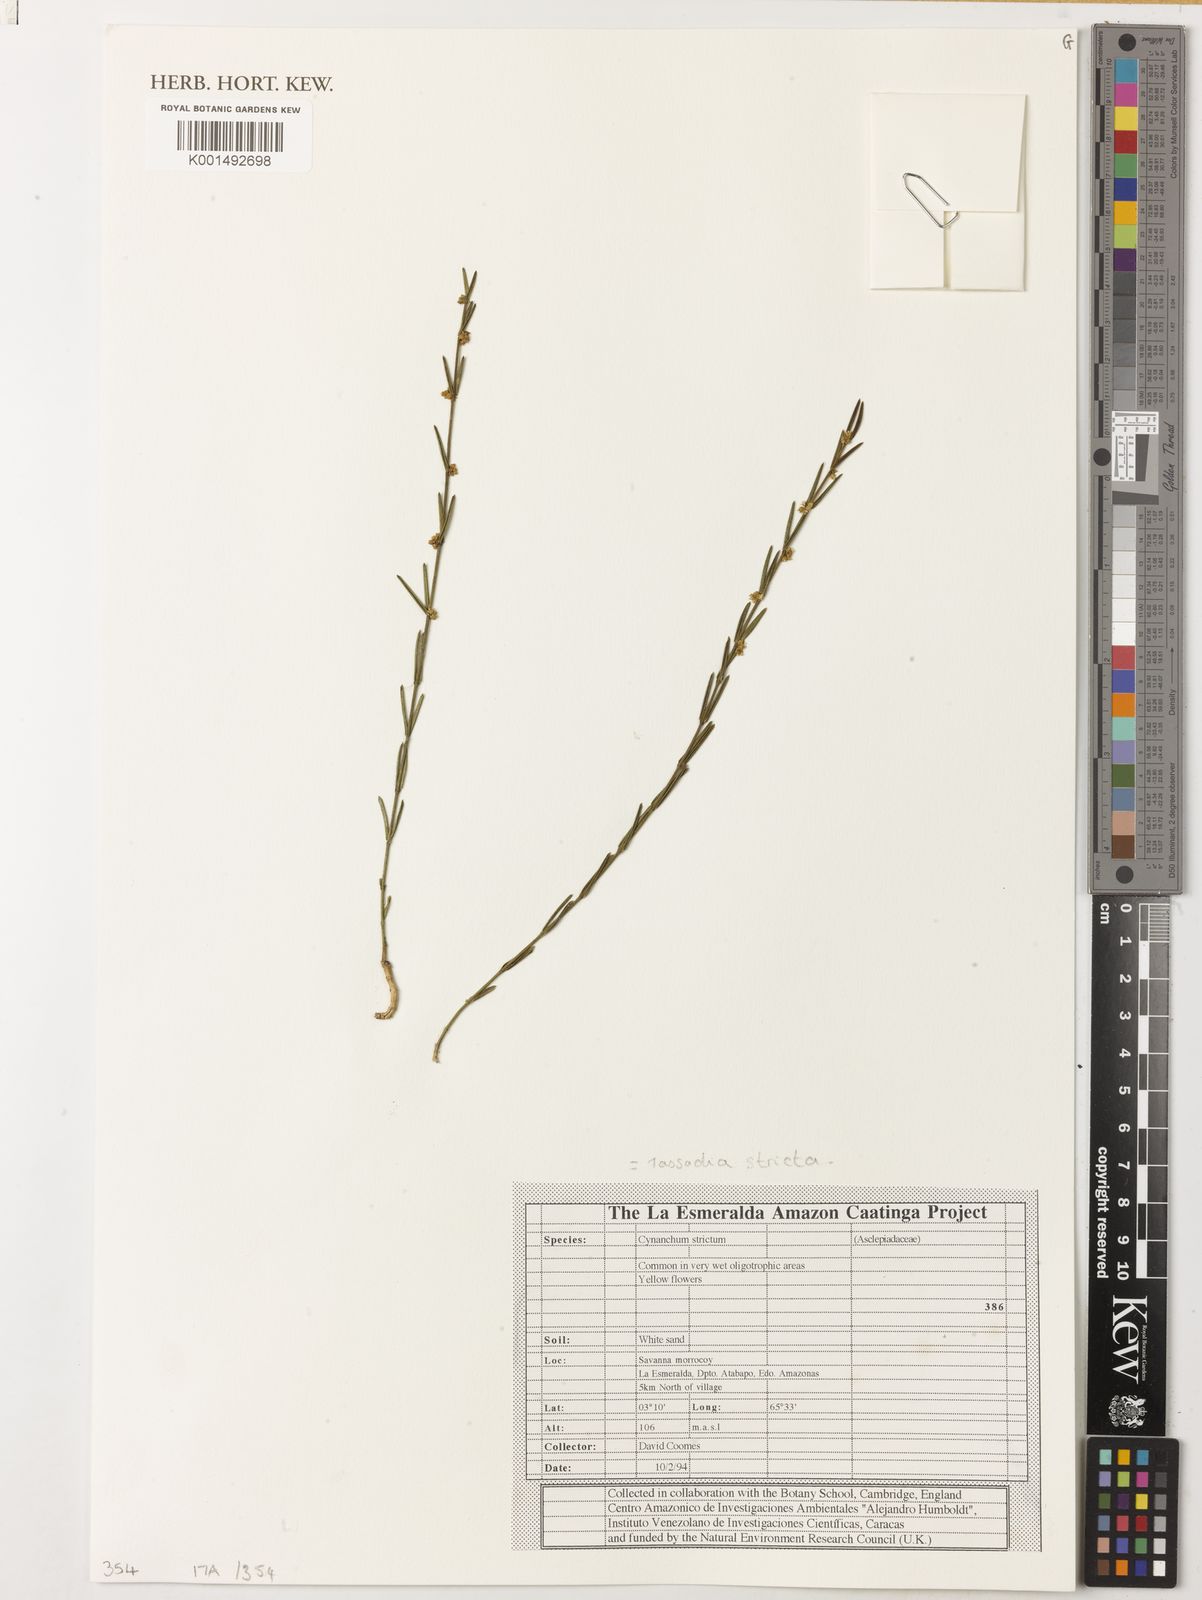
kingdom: Plantae
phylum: Tracheophyta
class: Magnoliopsida
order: Gentianales
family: Apocynaceae
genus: Tassadia
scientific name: Tassadia stricta
